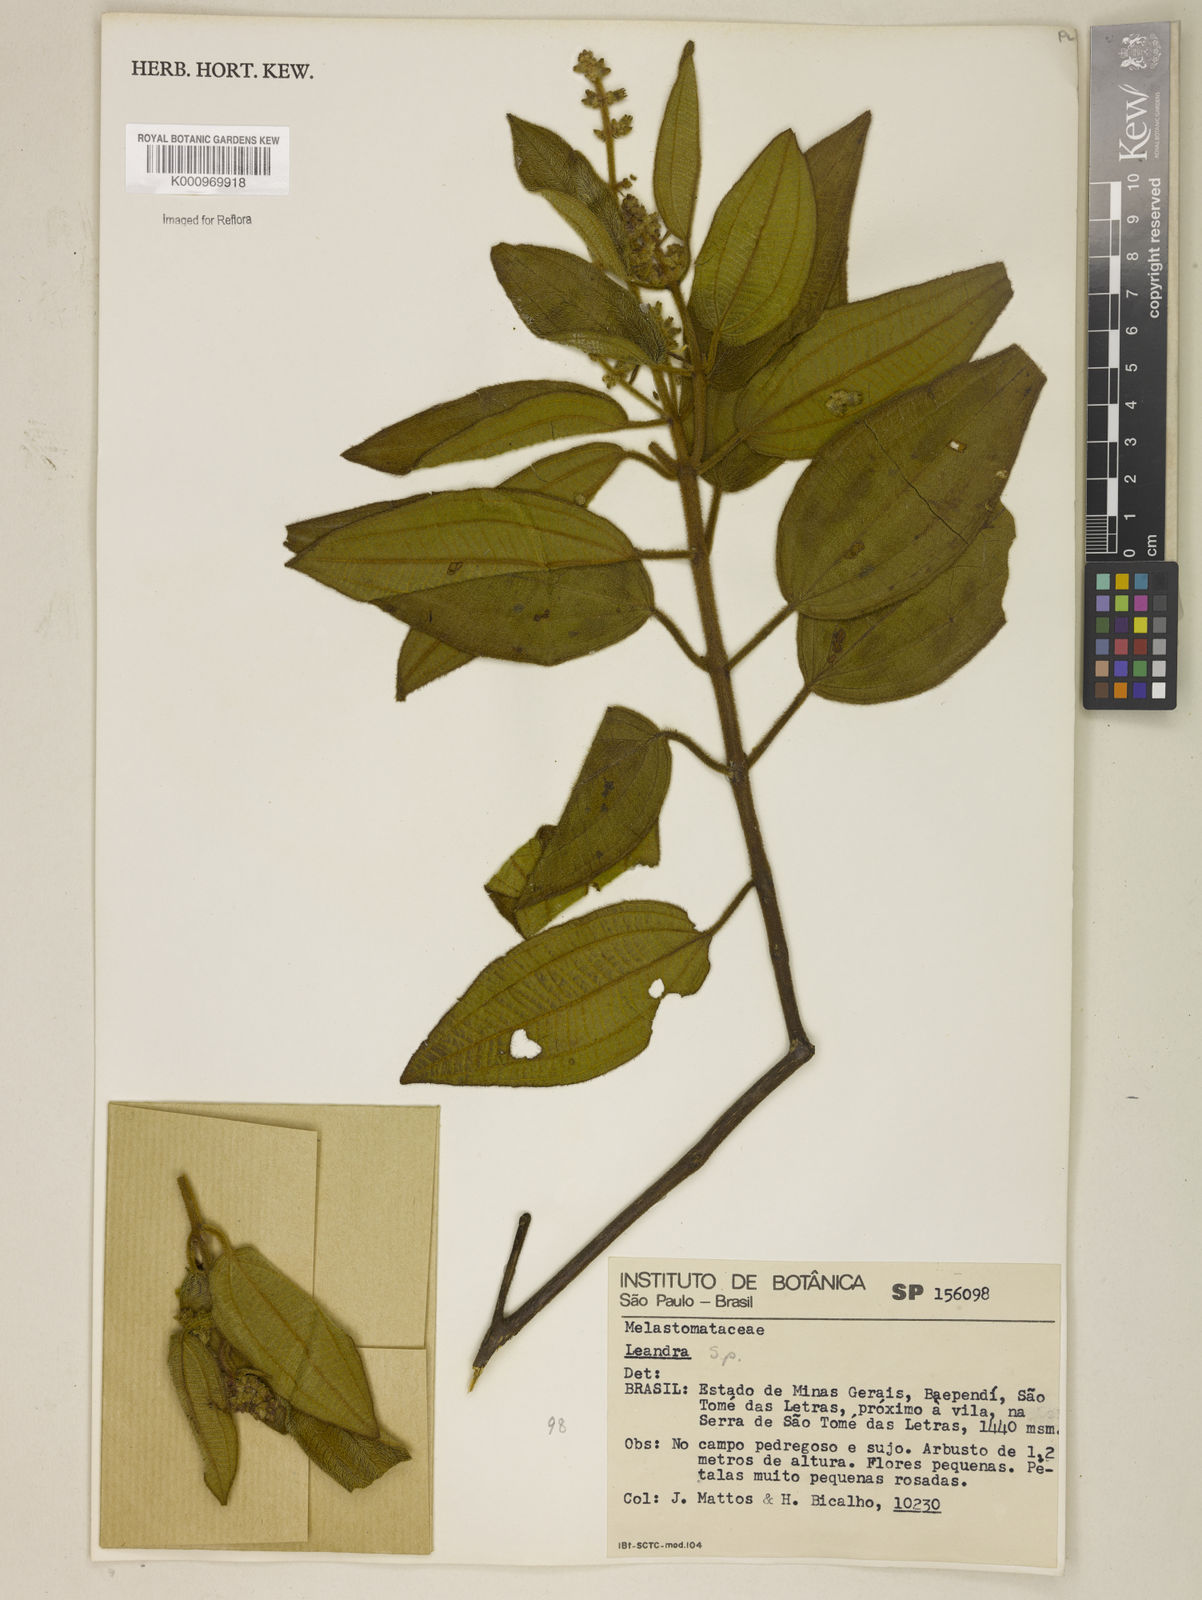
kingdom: Plantae
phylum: Tracheophyta
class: Magnoliopsida
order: Myrtales
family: Melastomataceae
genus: Miconia
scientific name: Miconia
